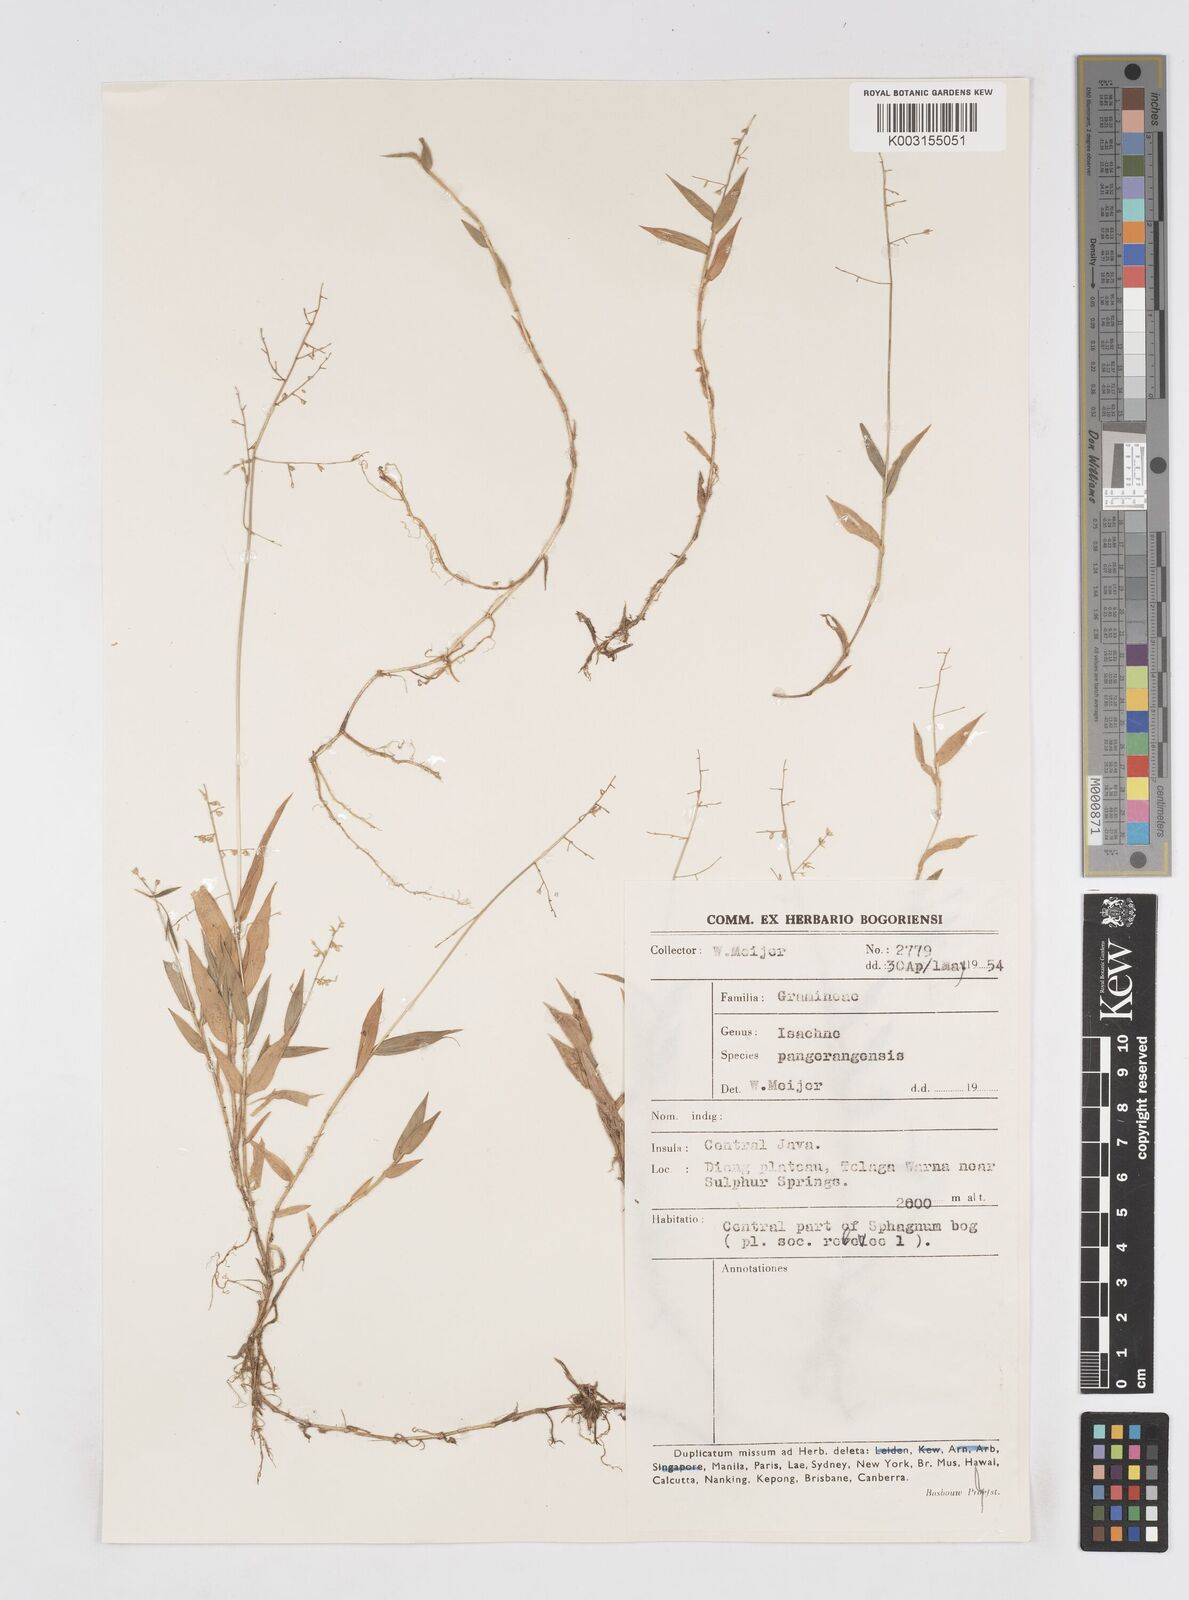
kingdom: Plantae
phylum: Tracheophyta
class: Liliopsida
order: Poales
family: Poaceae
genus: Isachne
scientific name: Isachne pangerangensis
